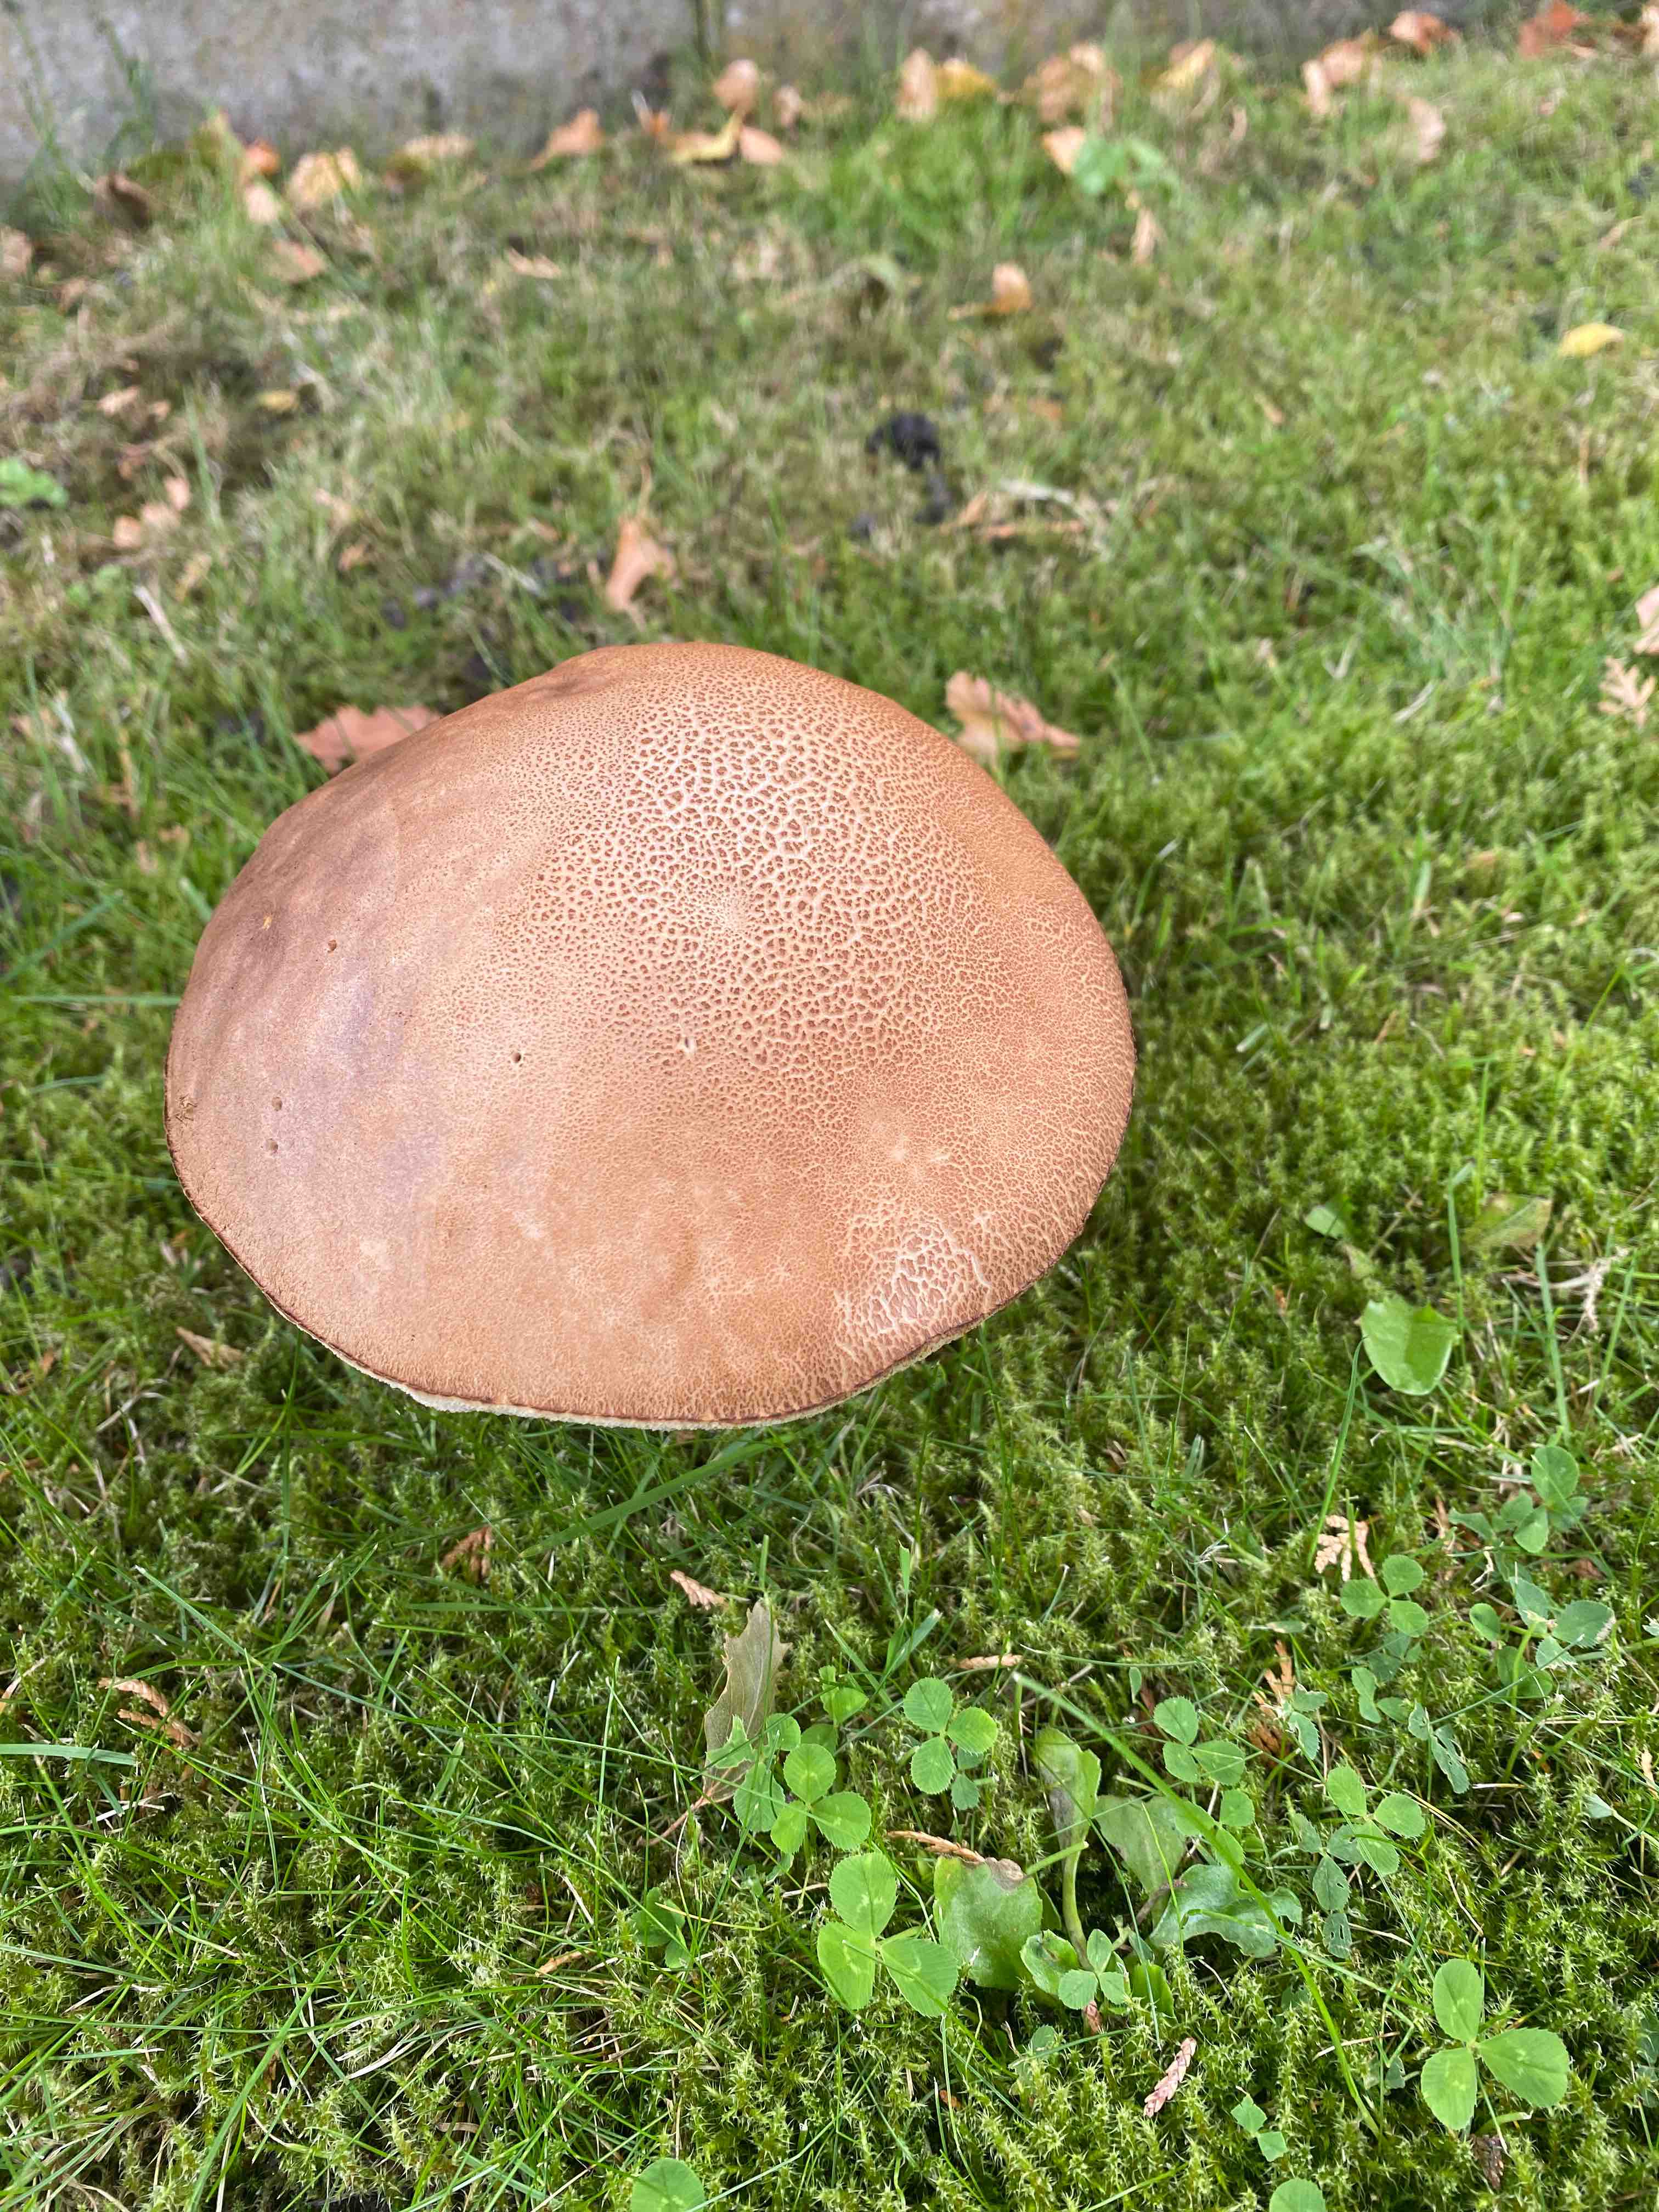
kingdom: Fungi
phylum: Basidiomycota
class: Agaricomycetes
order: Boletales
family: Boletaceae
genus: Leccinum
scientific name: Leccinum
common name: skælrørhat
